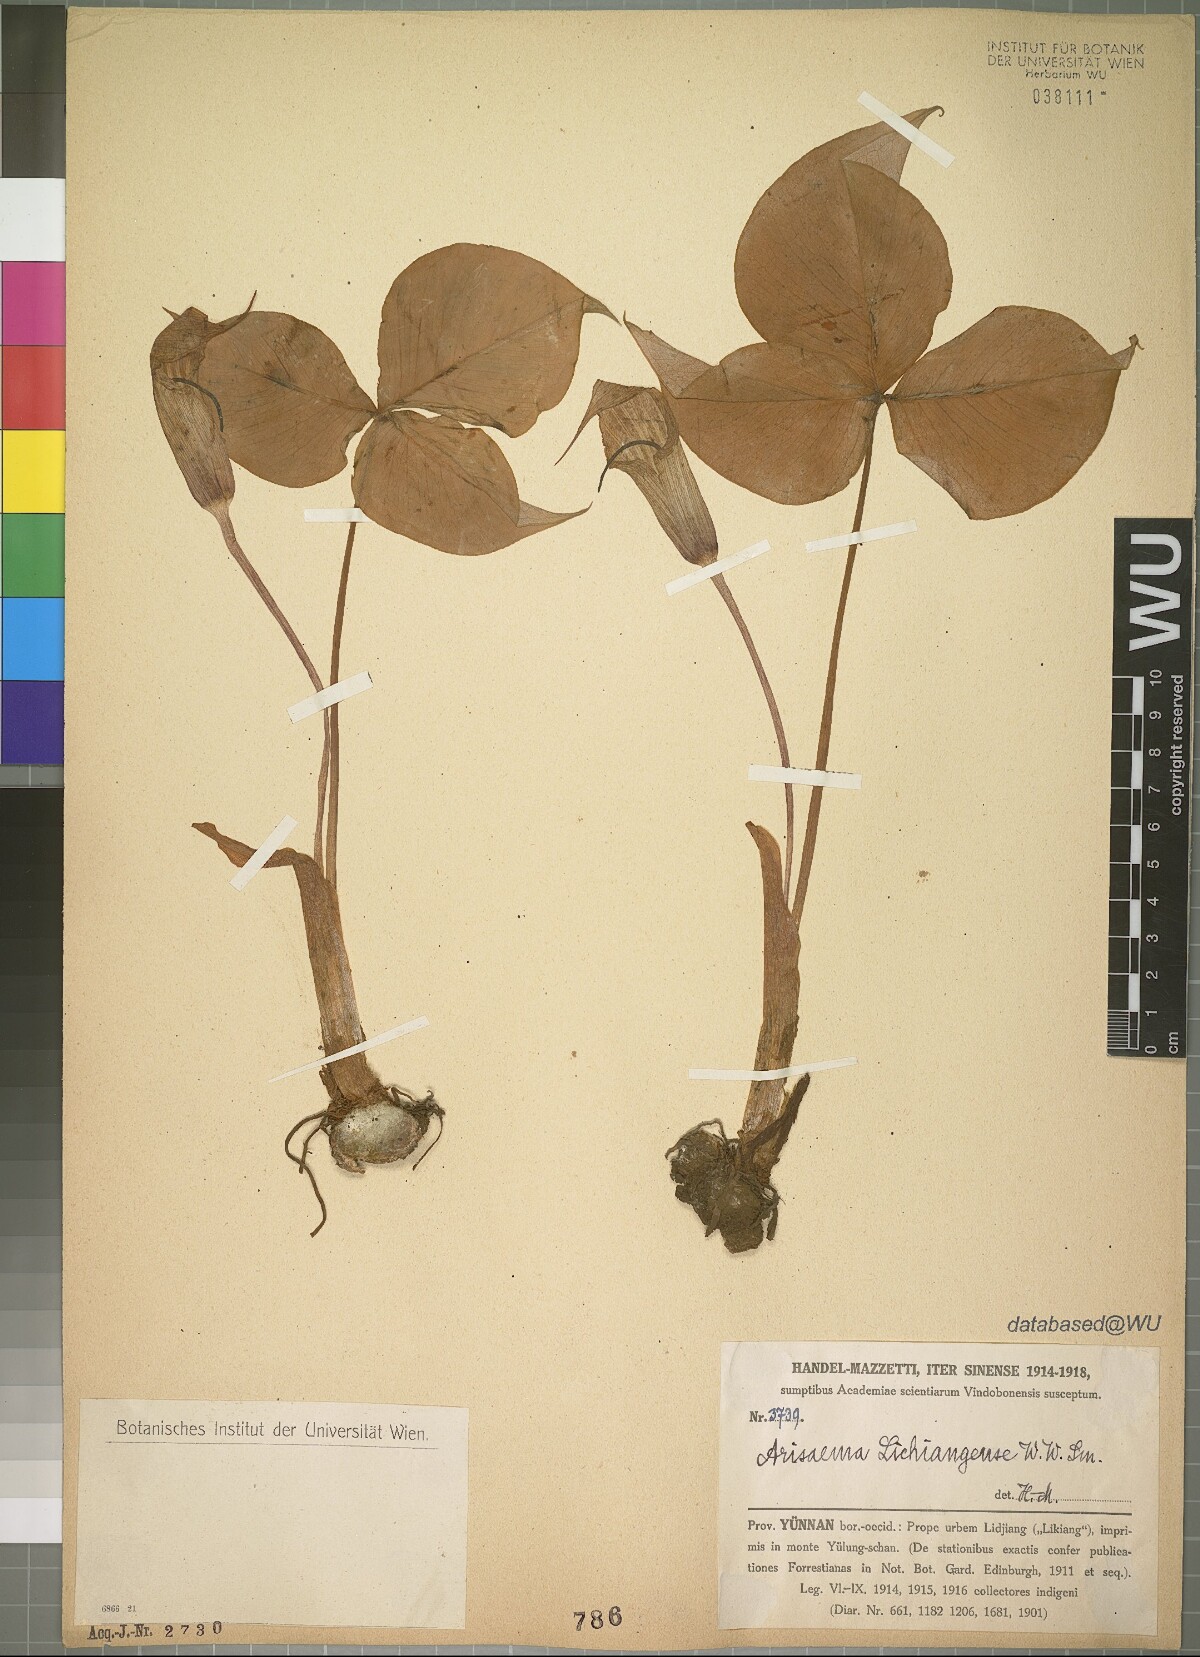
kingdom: Plantae
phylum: Tracheophyta
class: Liliopsida
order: Alismatales
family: Araceae
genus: Arisaema
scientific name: Arisaema lichiangense
